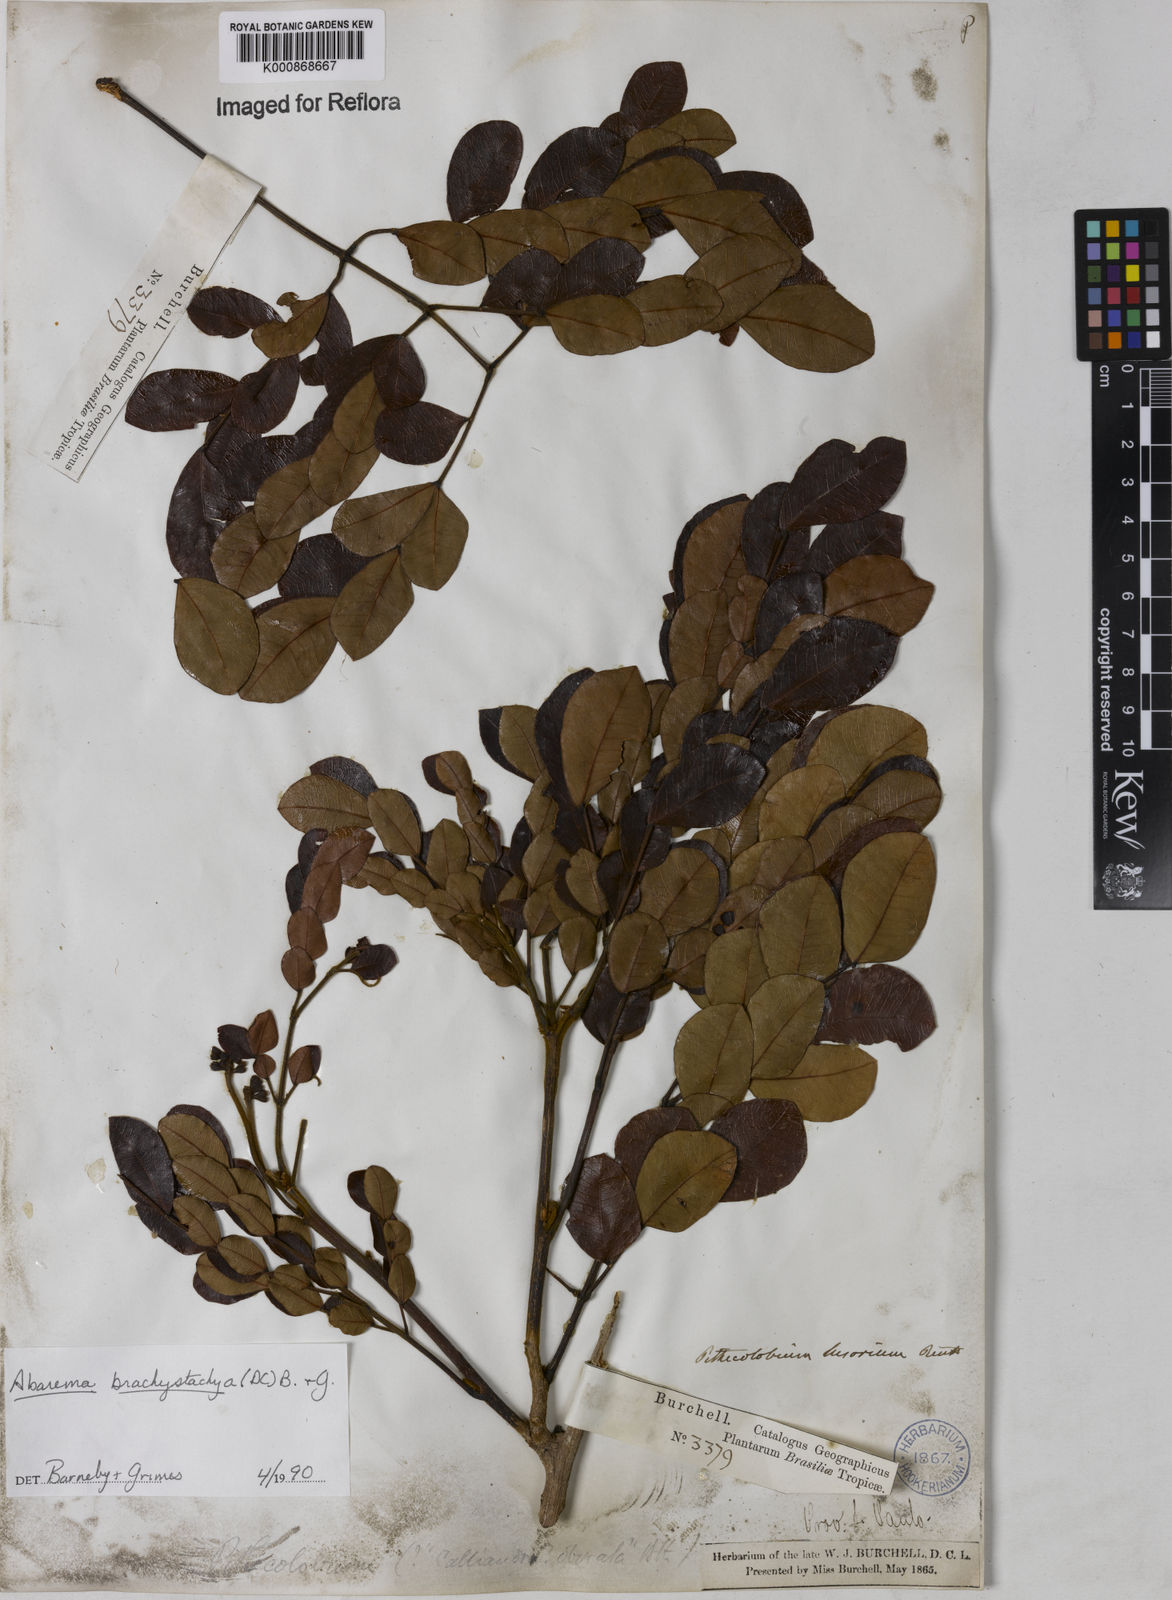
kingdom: Plantae
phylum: Tracheophyta
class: Magnoliopsida
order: Fabales
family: Fabaceae
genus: Abarema
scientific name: Abarema
